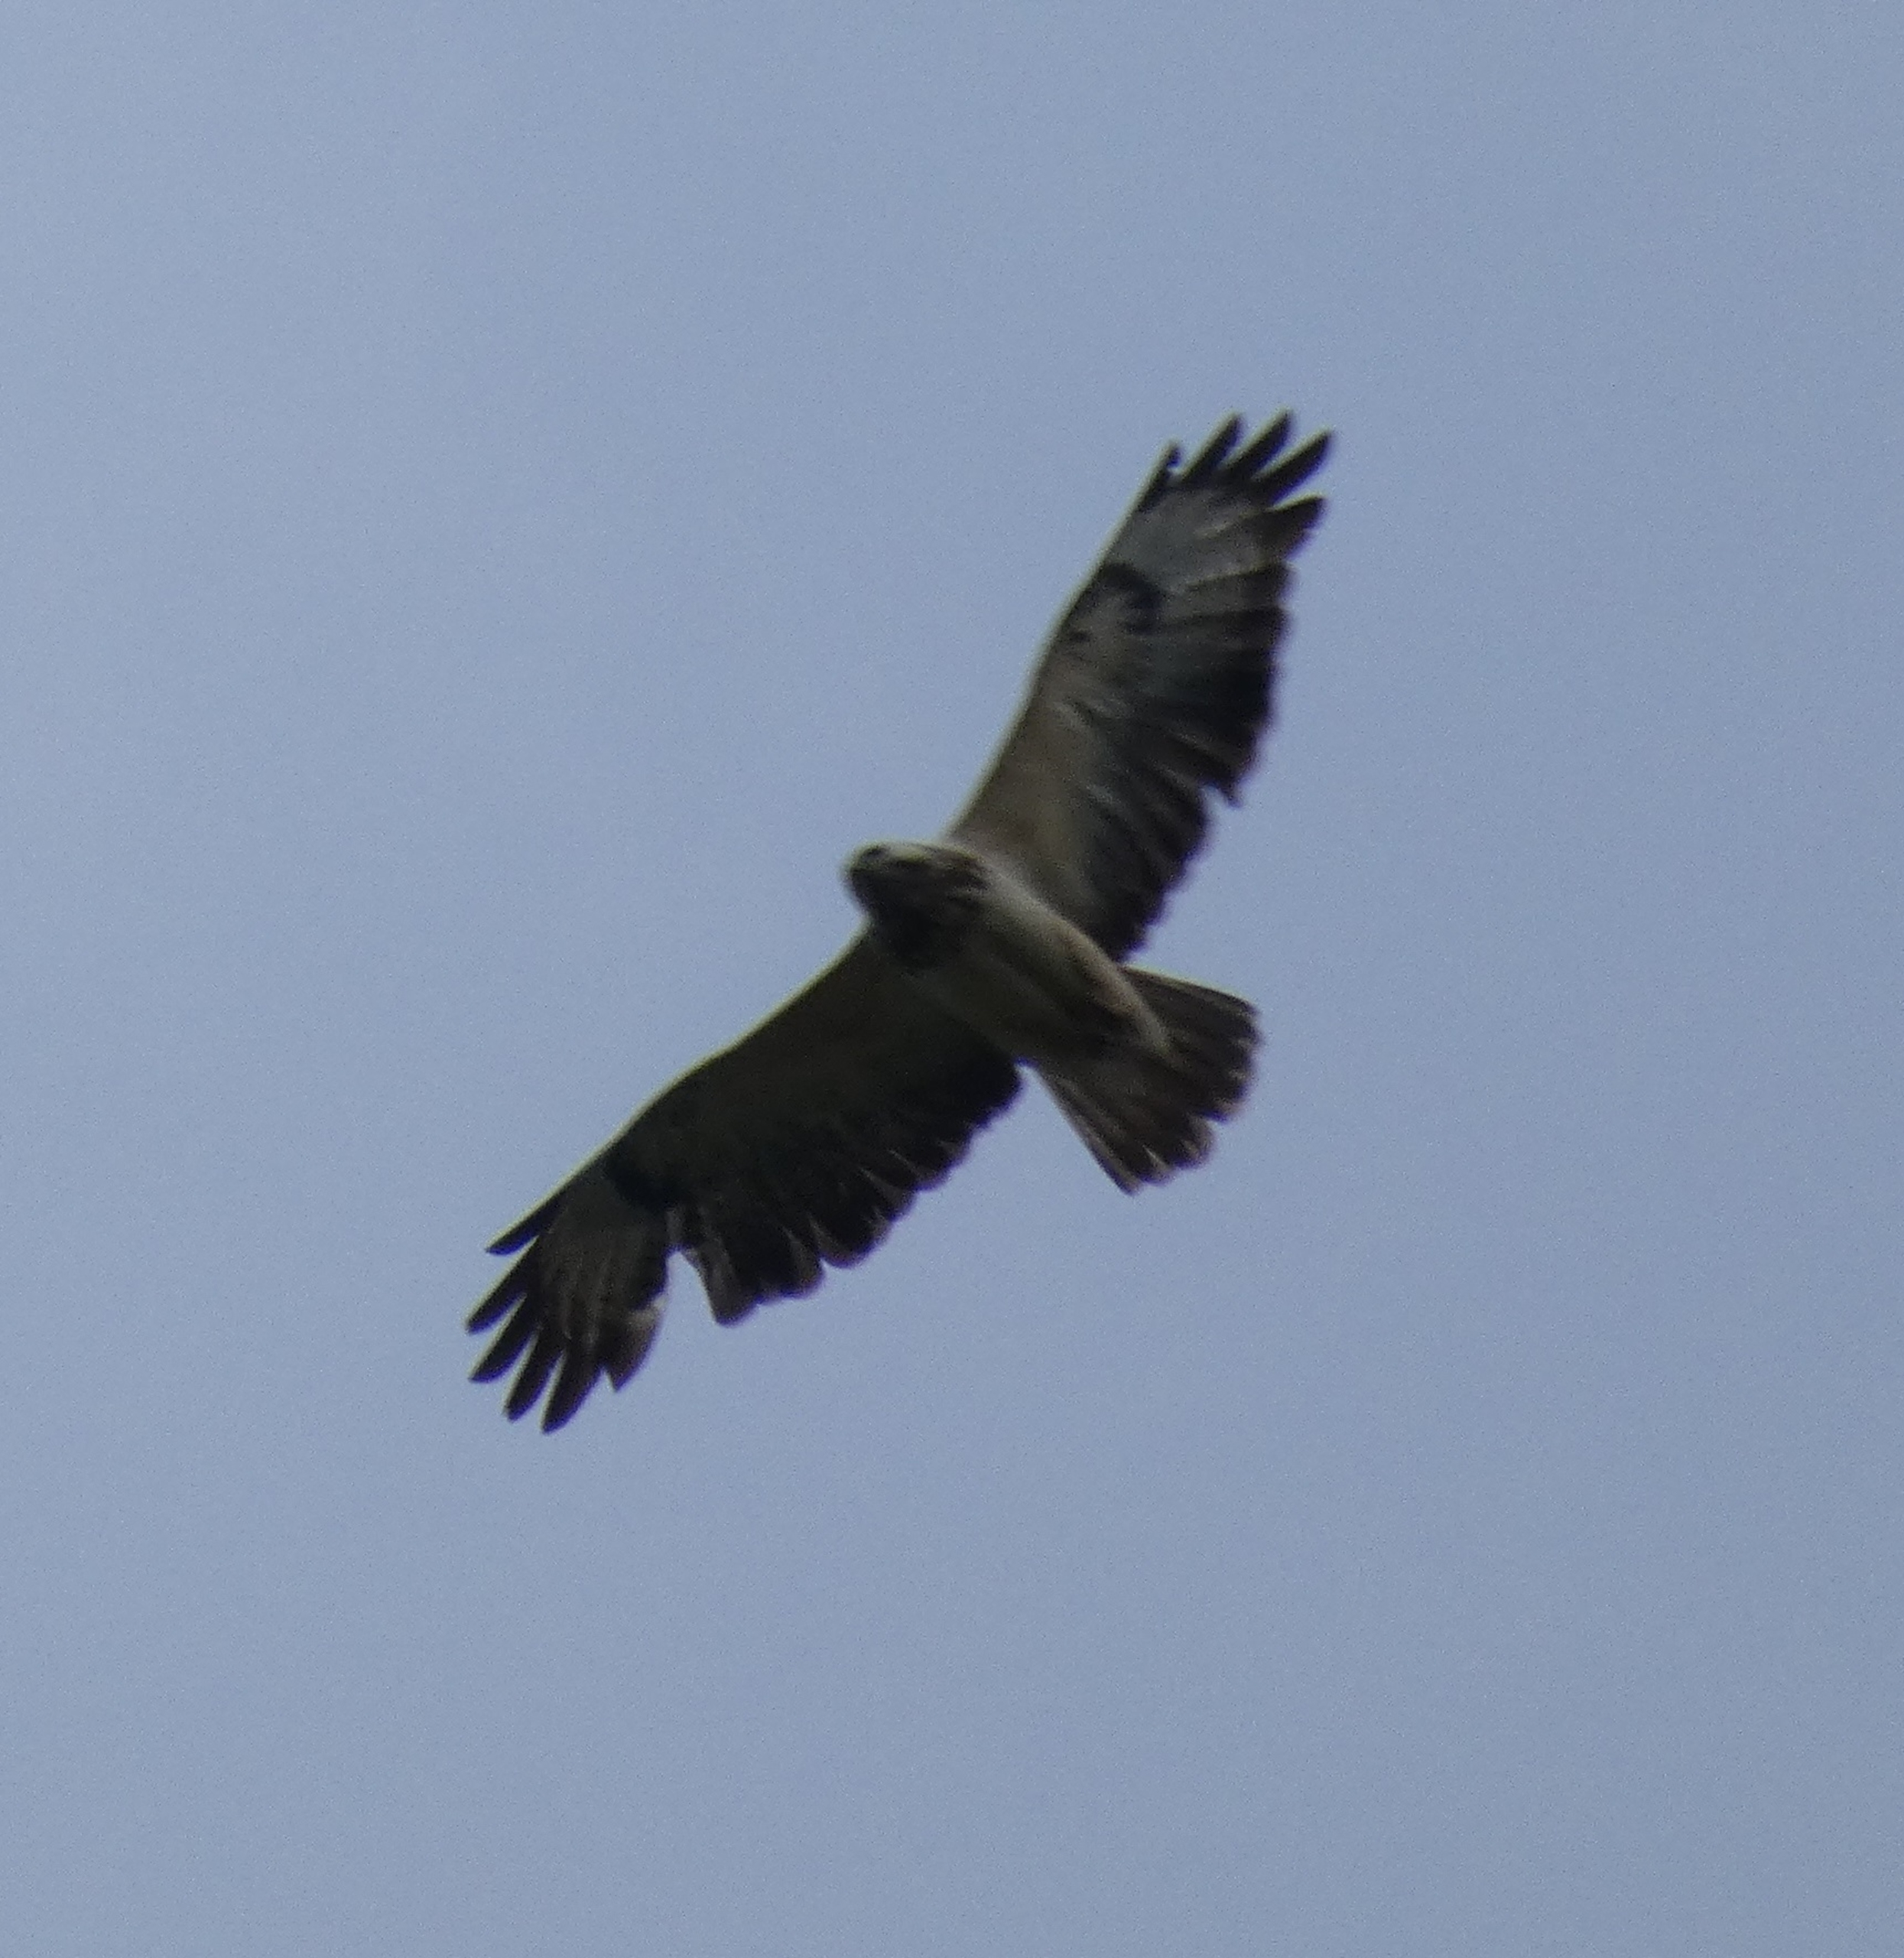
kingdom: Animalia
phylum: Chordata
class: Aves
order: Accipitriformes
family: Accipitridae
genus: Buteo
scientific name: Buteo buteo
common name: Musvåge
